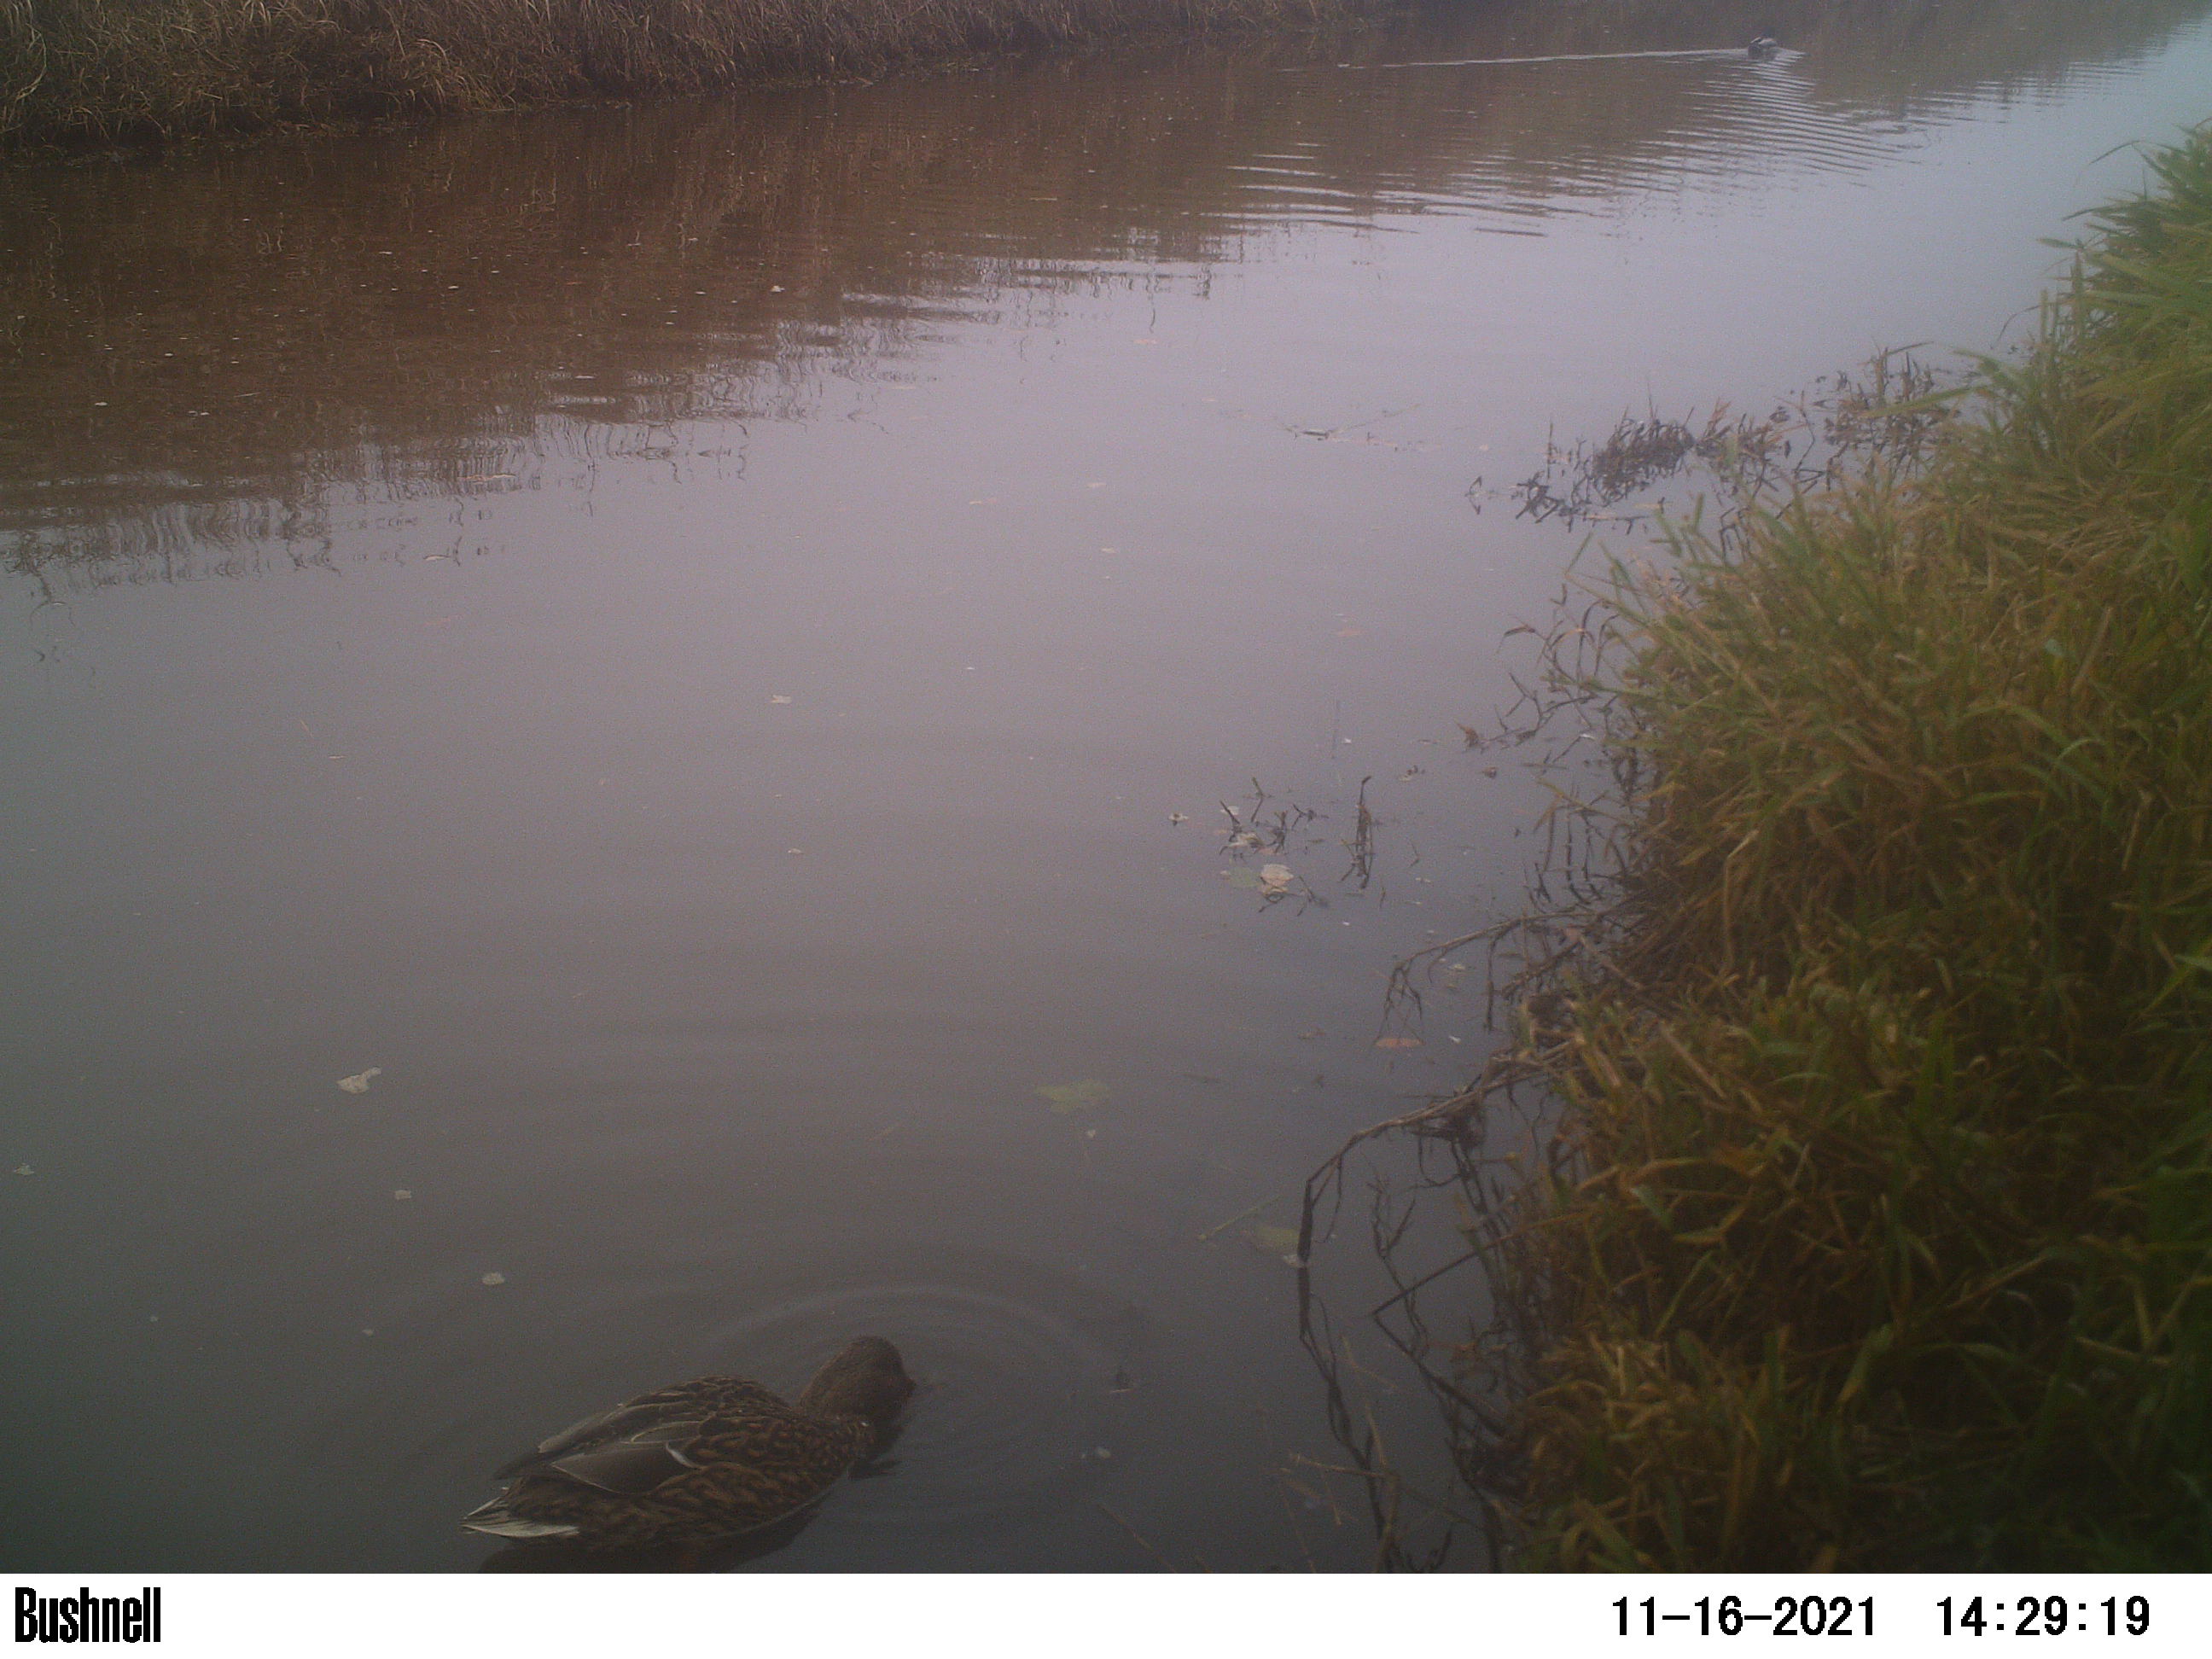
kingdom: Animalia
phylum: Chordata
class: Aves
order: Anseriformes
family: Anatidae
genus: Anas
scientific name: Anas
